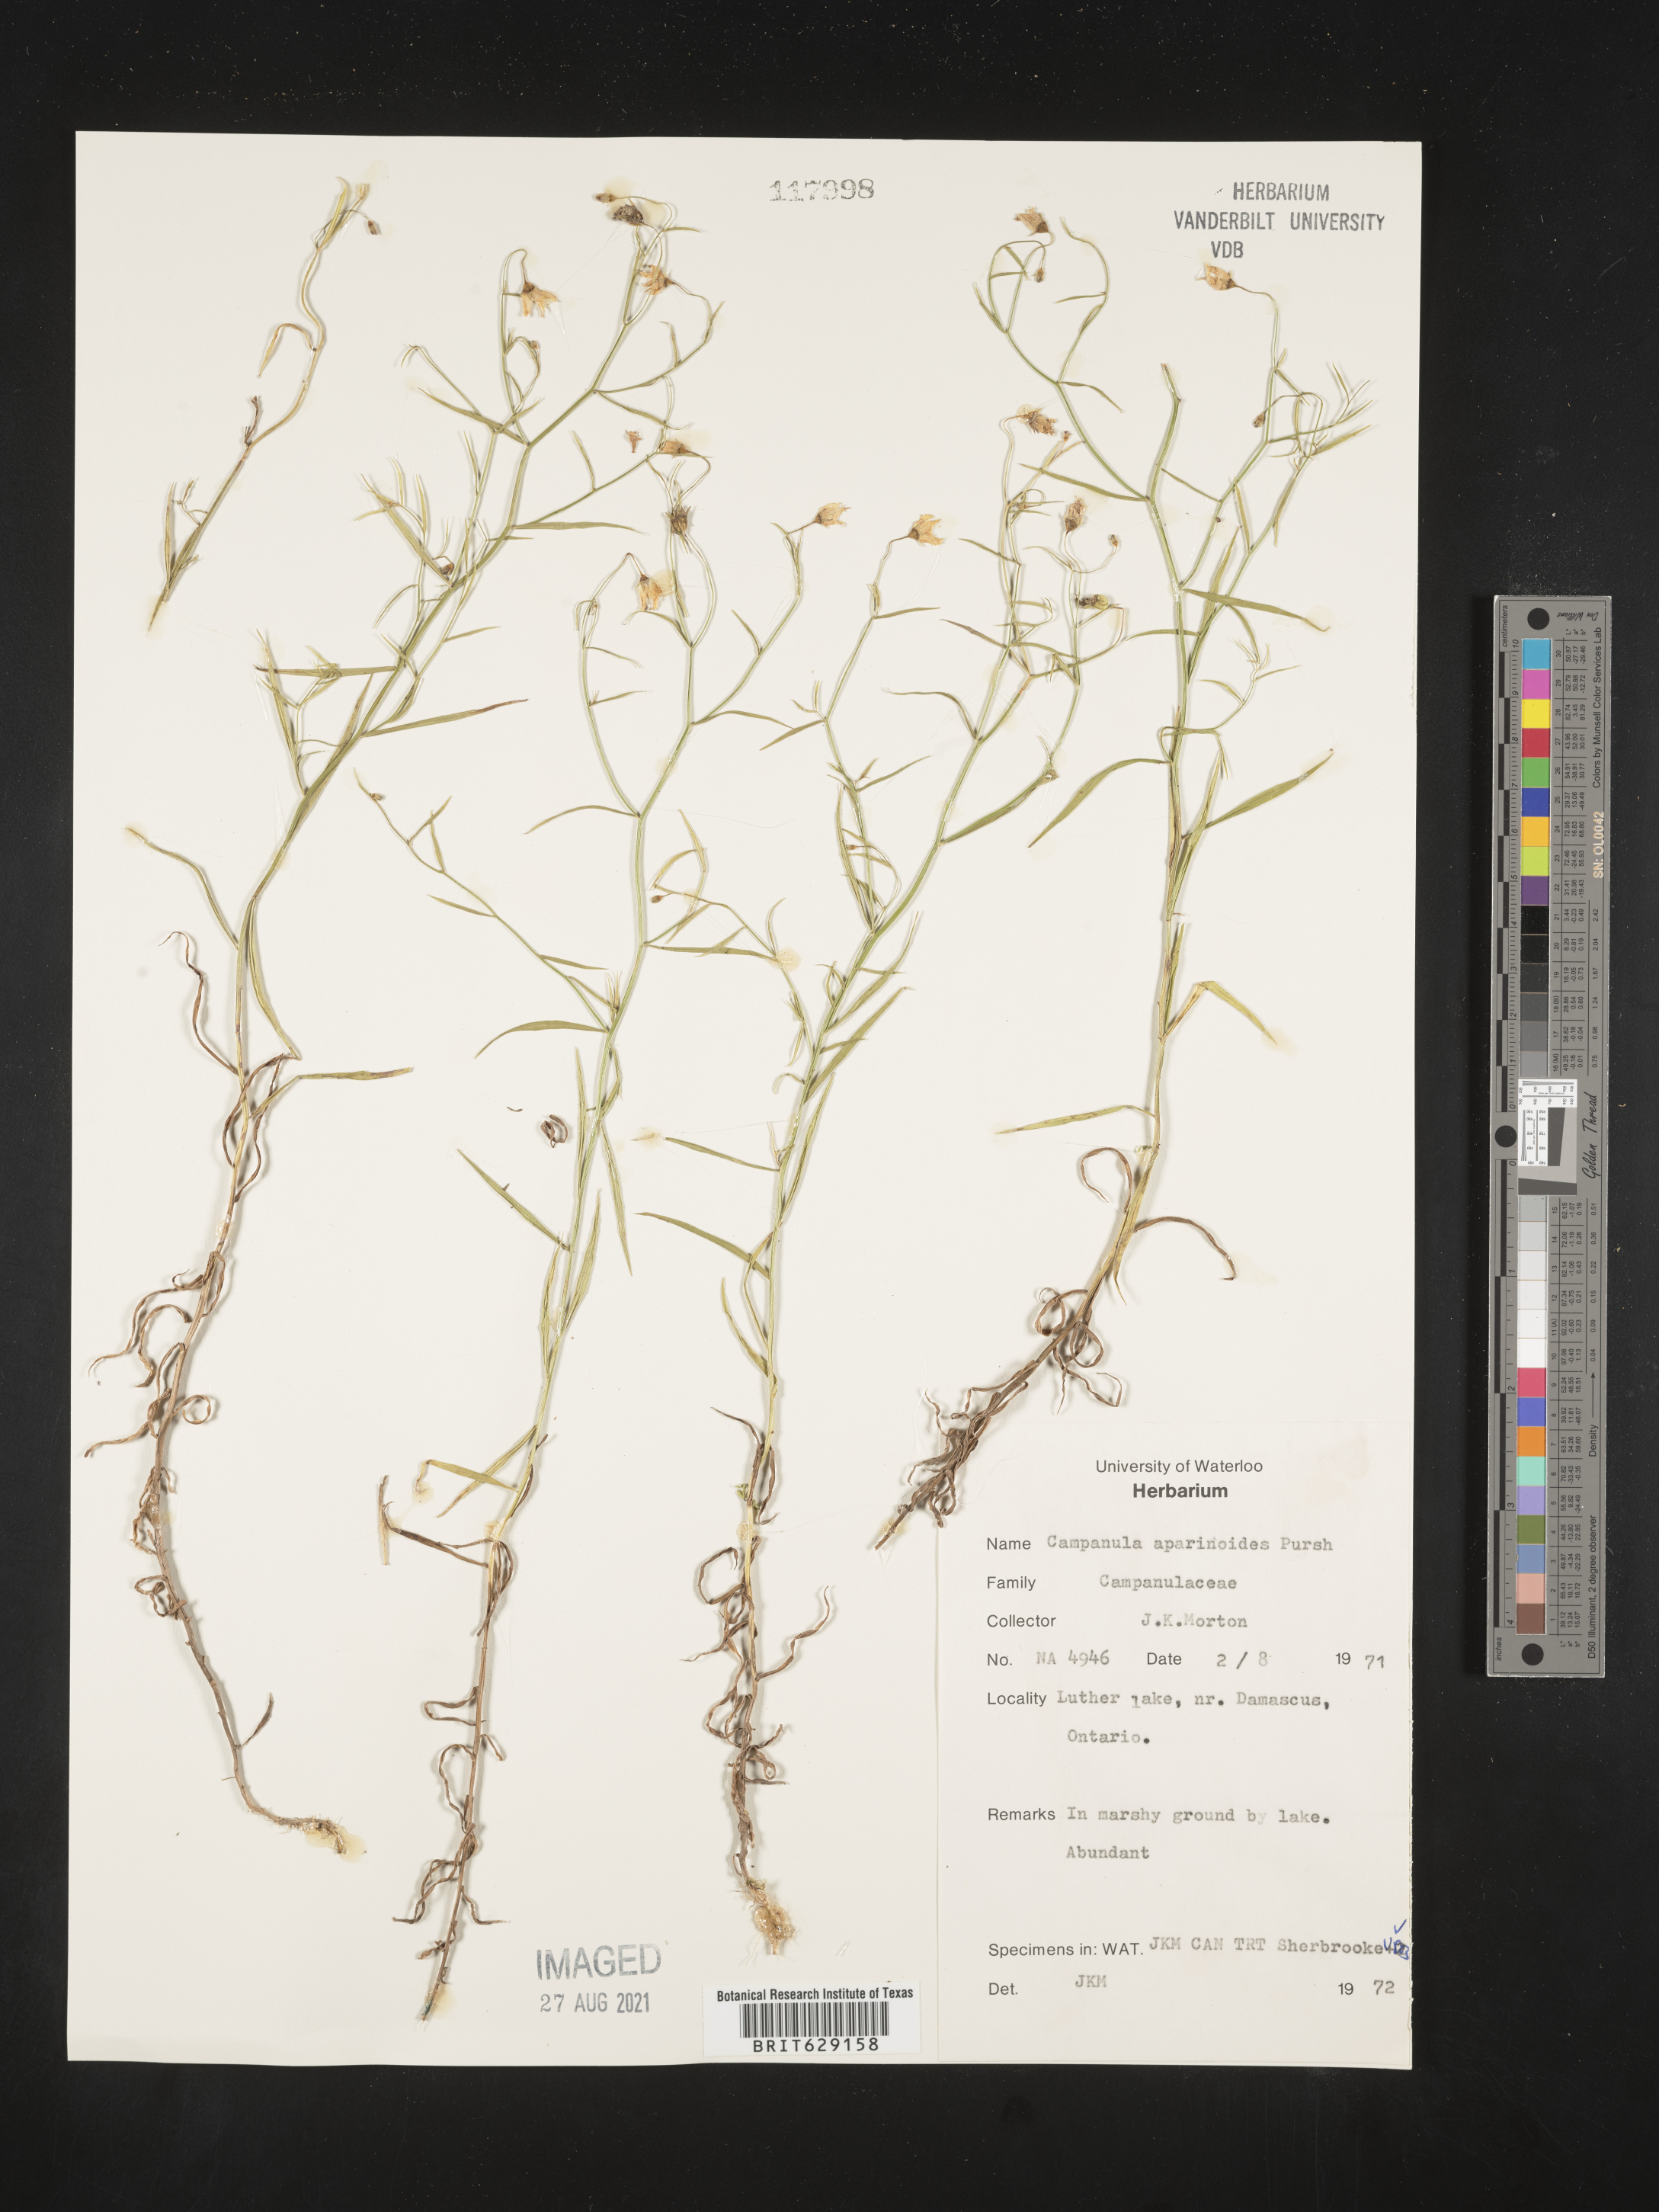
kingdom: Plantae
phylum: Tracheophyta
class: Magnoliopsida
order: Asterales
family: Campanulaceae
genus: Palustricodon
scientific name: Palustricodon aparinoides
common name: Bedstraw bellflower
